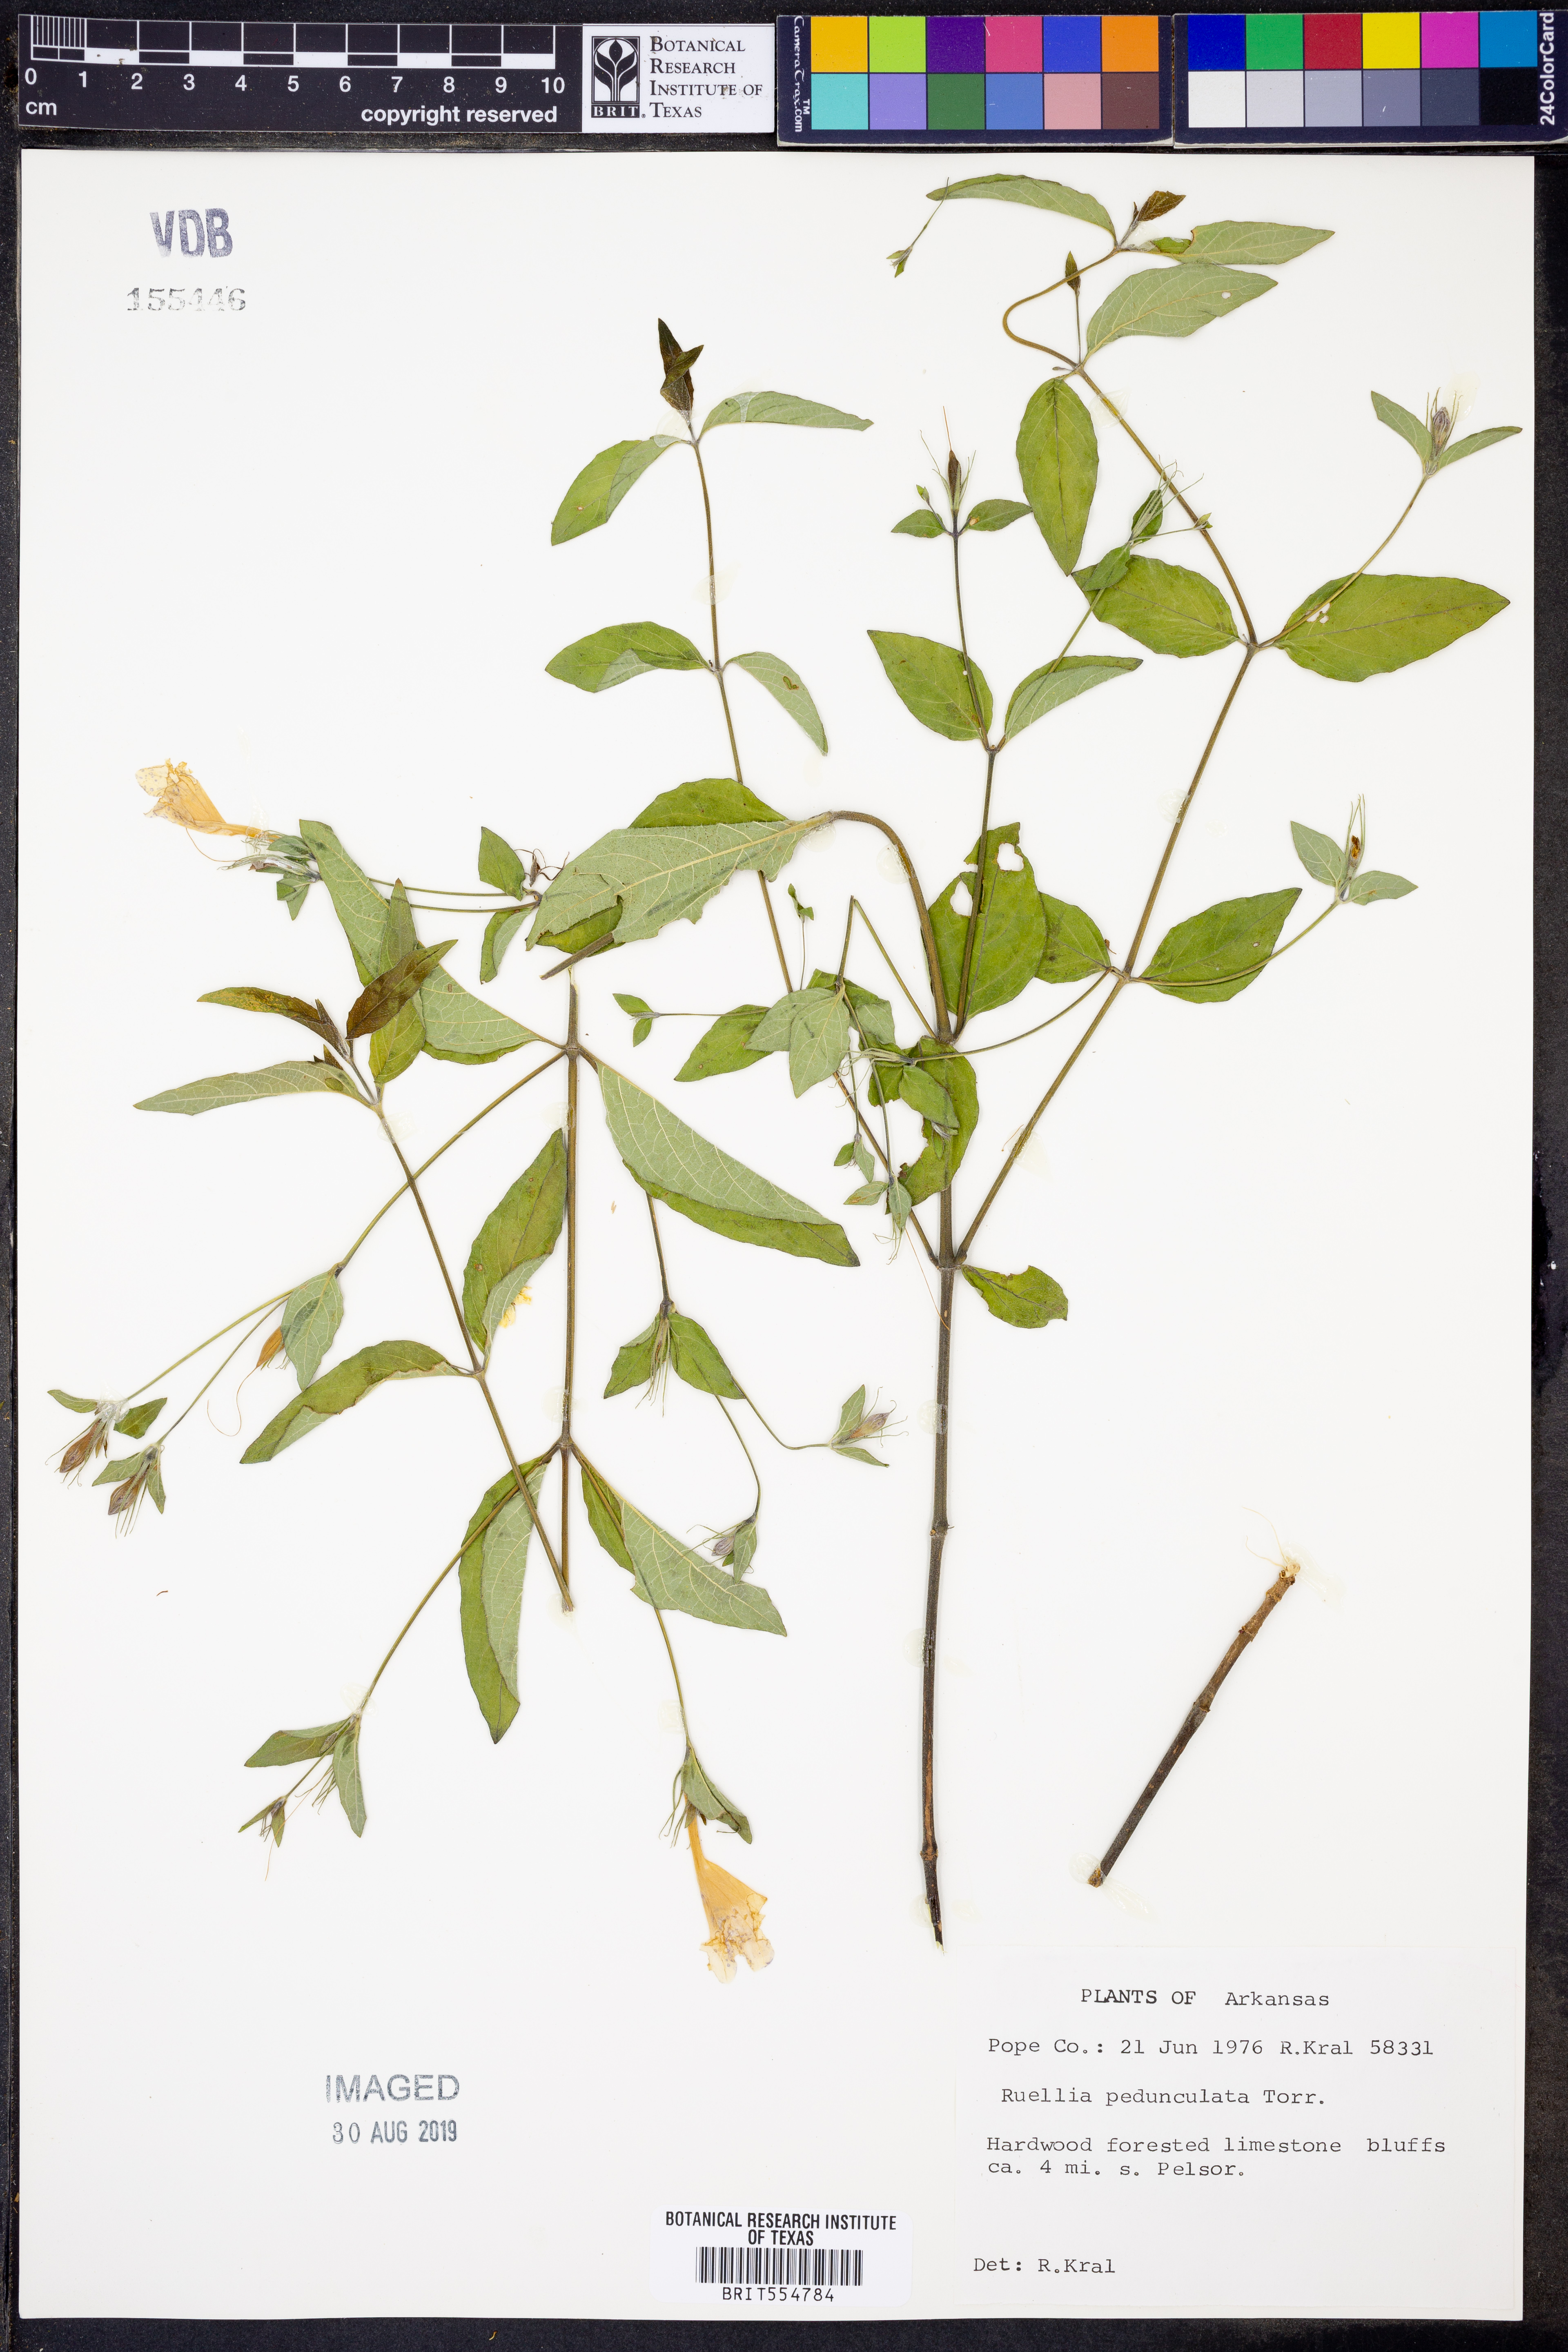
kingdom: Plantae
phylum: Tracheophyta
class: Magnoliopsida
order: Lamiales
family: Acanthaceae
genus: Ruellia
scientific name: Ruellia pedunculata
